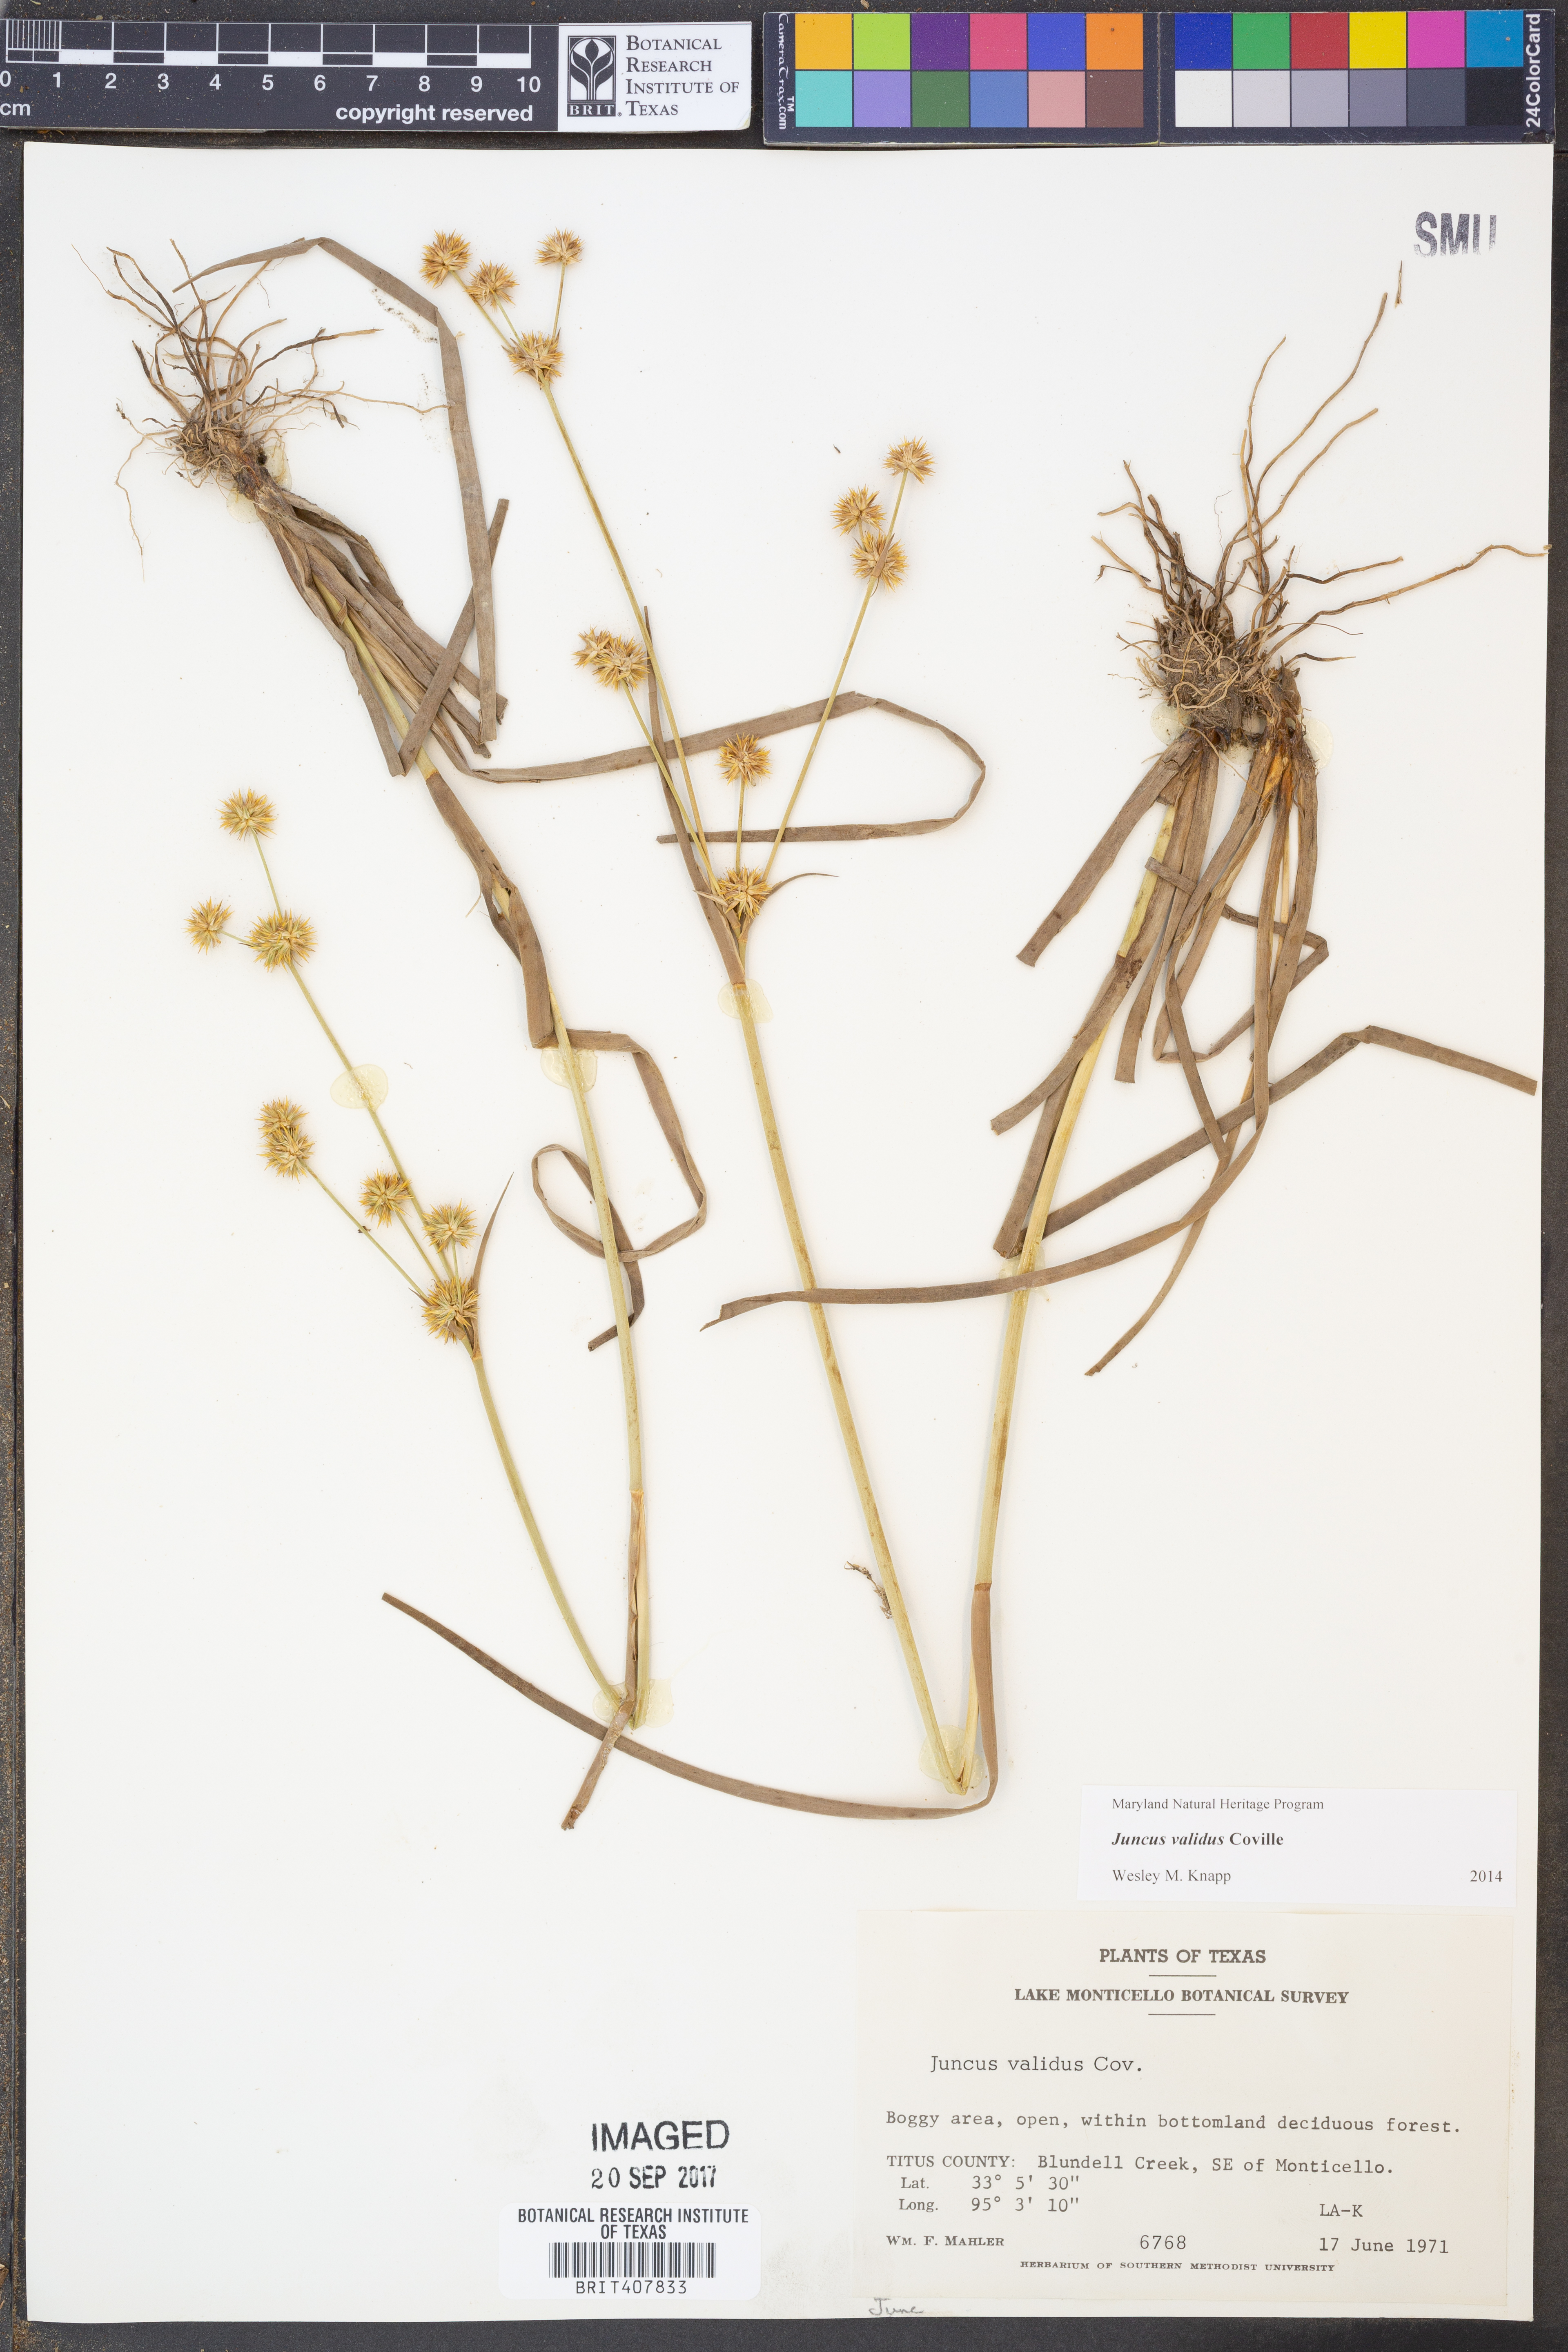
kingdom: Plantae
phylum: Tracheophyta
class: Liliopsida
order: Poales
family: Juncaceae
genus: Juncus
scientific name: Juncus validus
